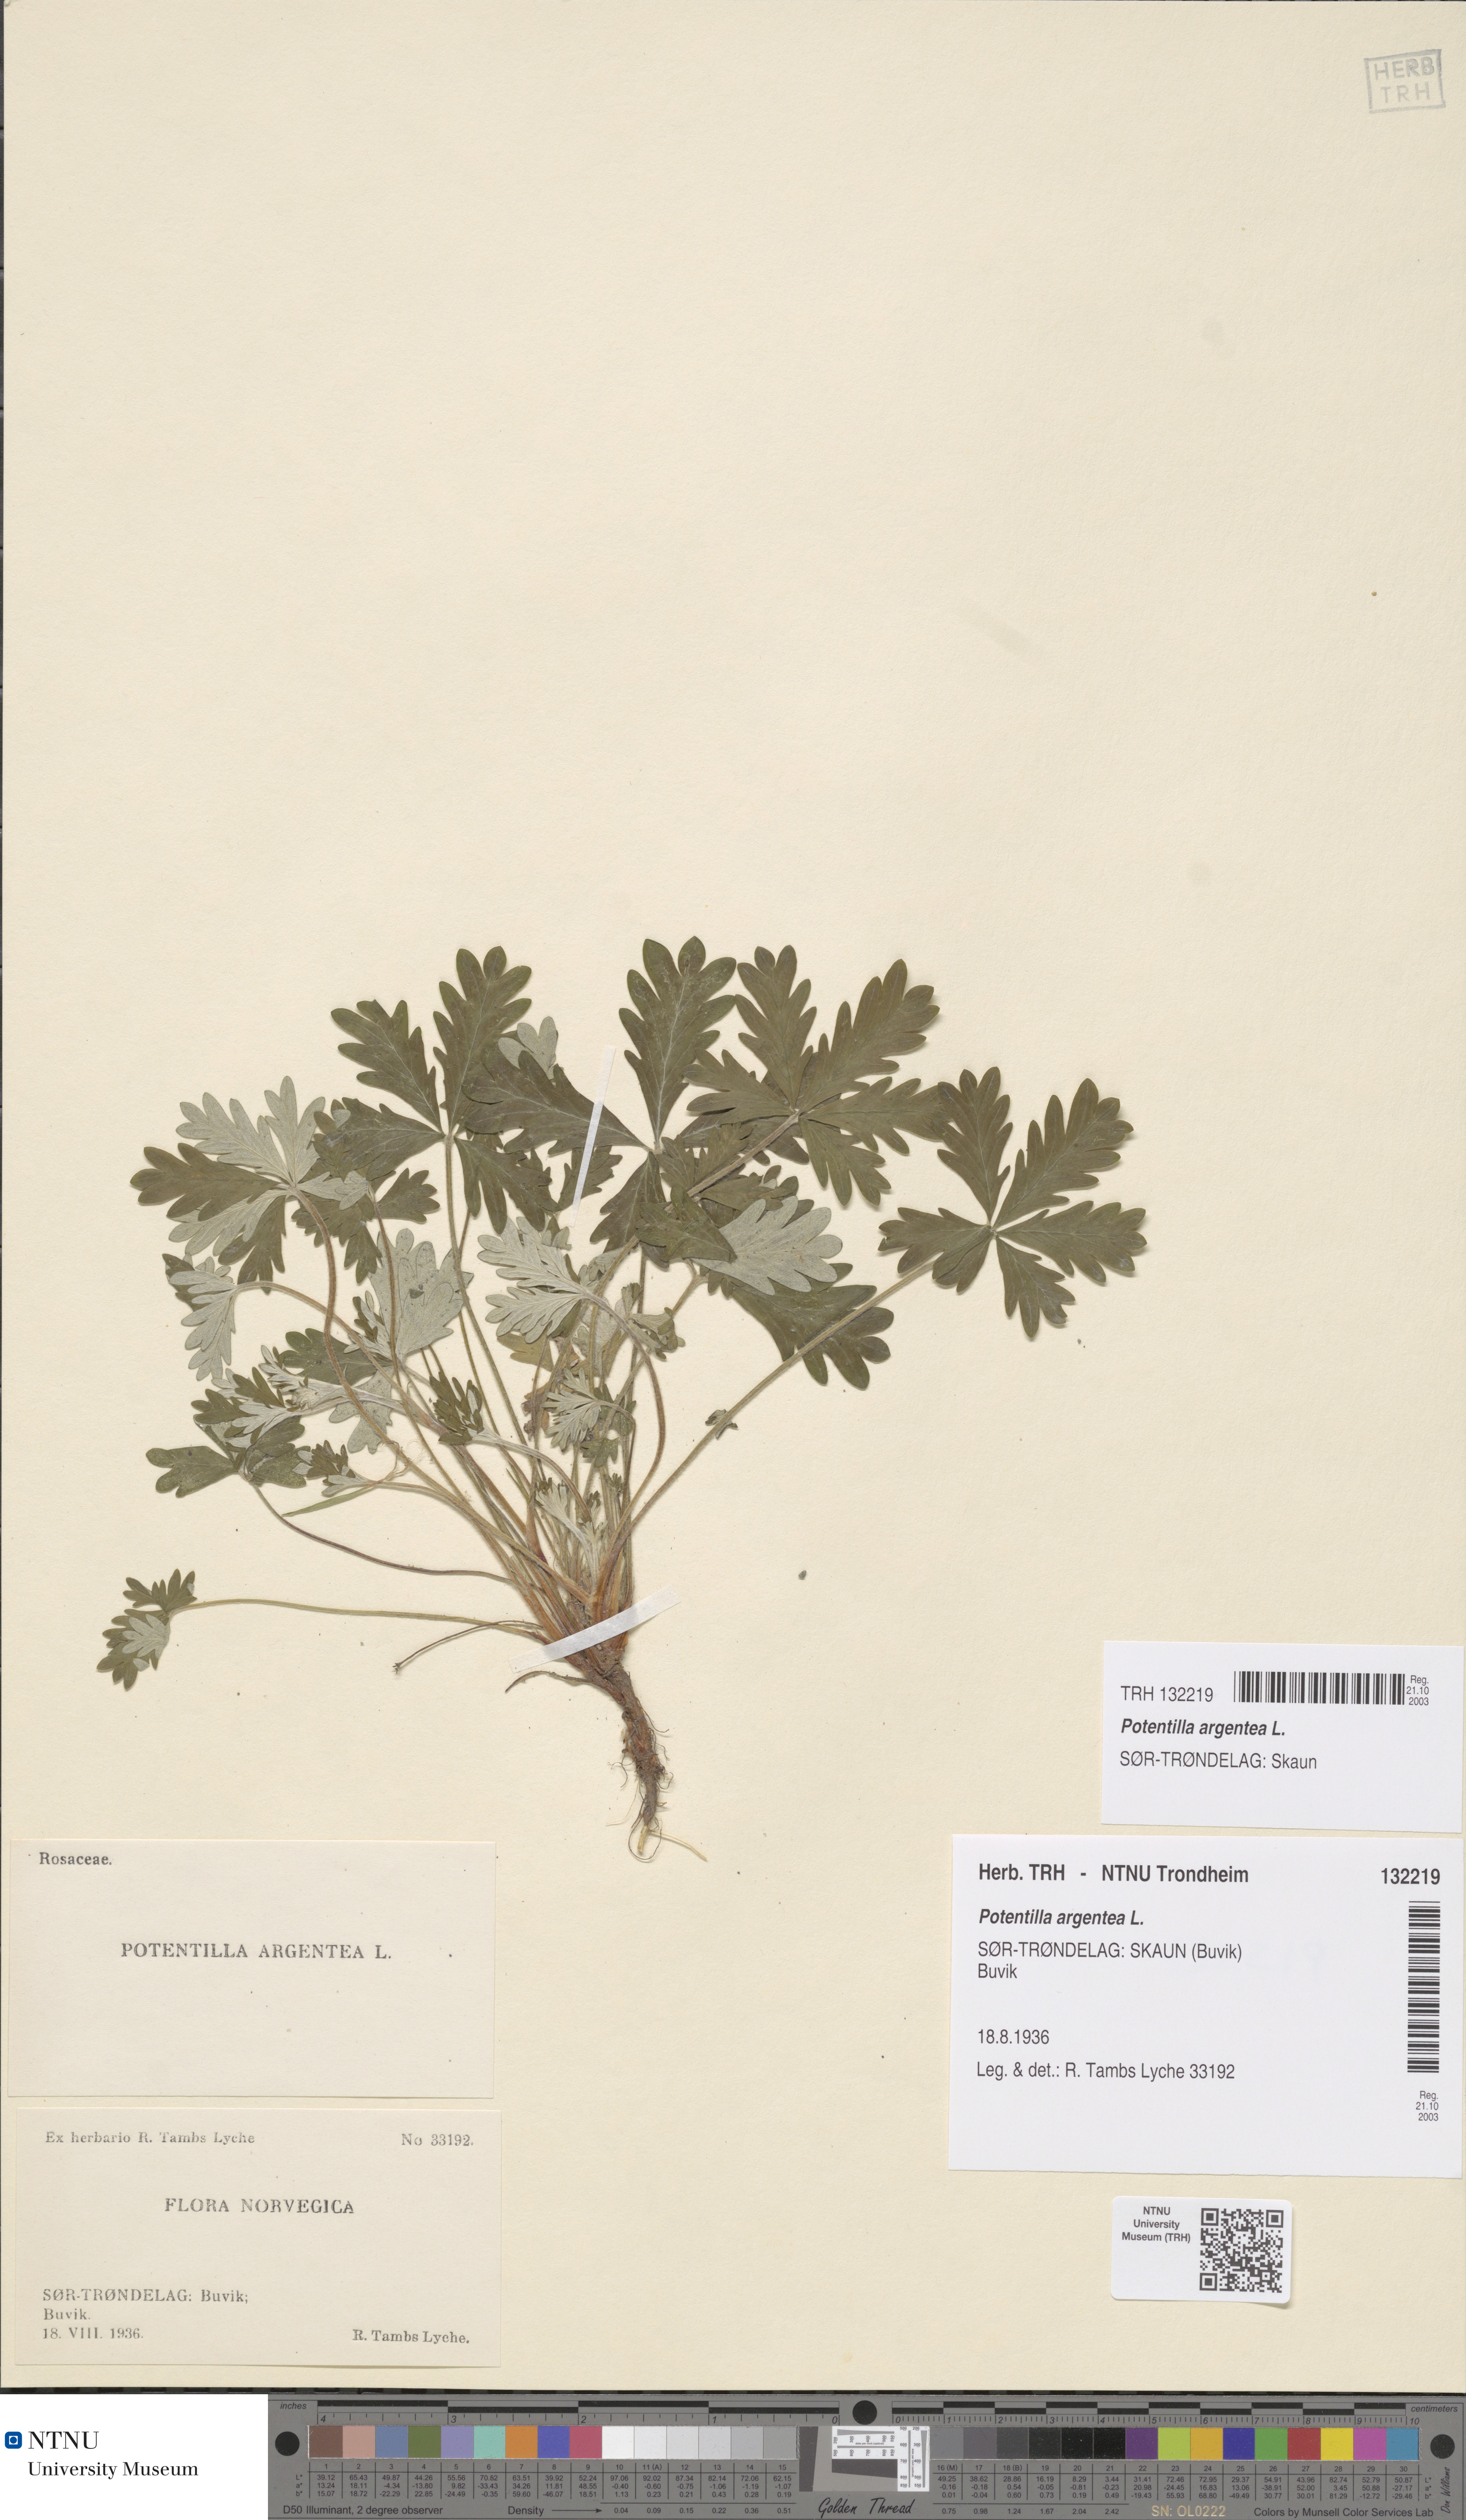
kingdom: Plantae
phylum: Tracheophyta
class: Magnoliopsida
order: Rosales
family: Rosaceae
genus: Potentilla
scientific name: Potentilla argentea
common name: Hoary cinquefoil
